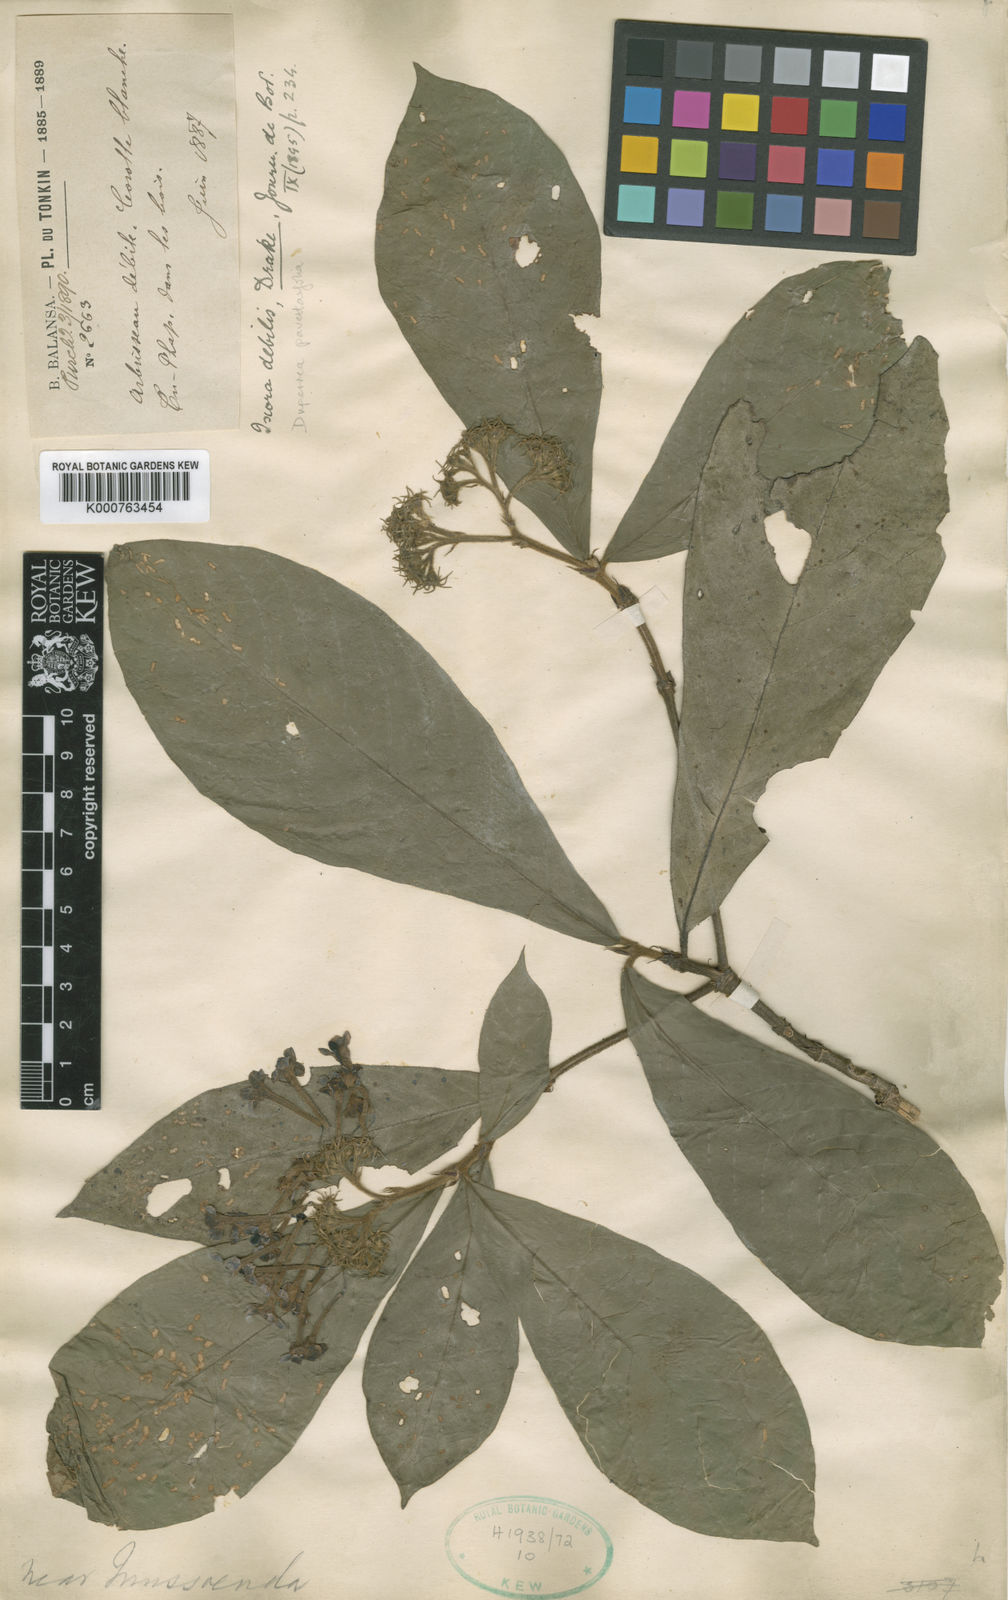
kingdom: Plantae
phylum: Tracheophyta
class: Magnoliopsida
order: Gentianales
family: Rubiaceae
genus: Duperrea
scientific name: Duperrea pavettifolia
